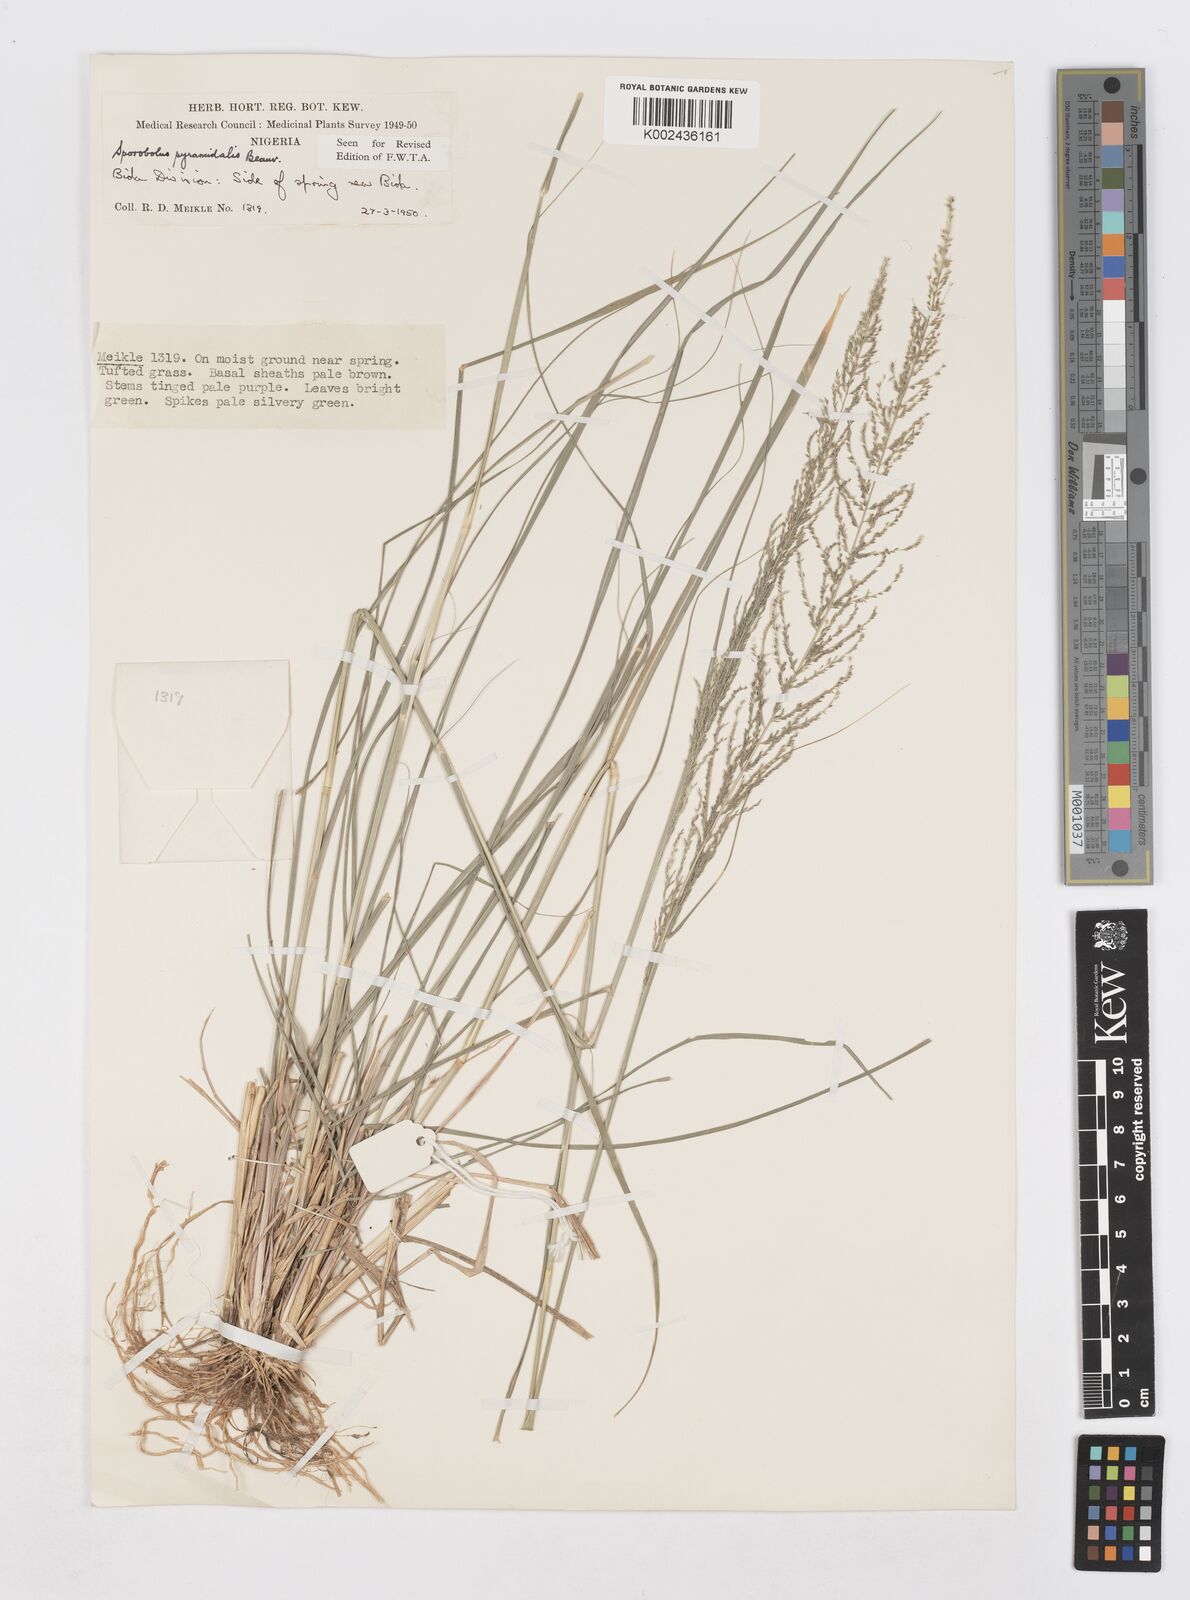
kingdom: Plantae
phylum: Tracheophyta
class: Liliopsida
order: Poales
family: Poaceae
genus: Sporobolus
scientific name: Sporobolus pyramidalis
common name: West indian dropseed
